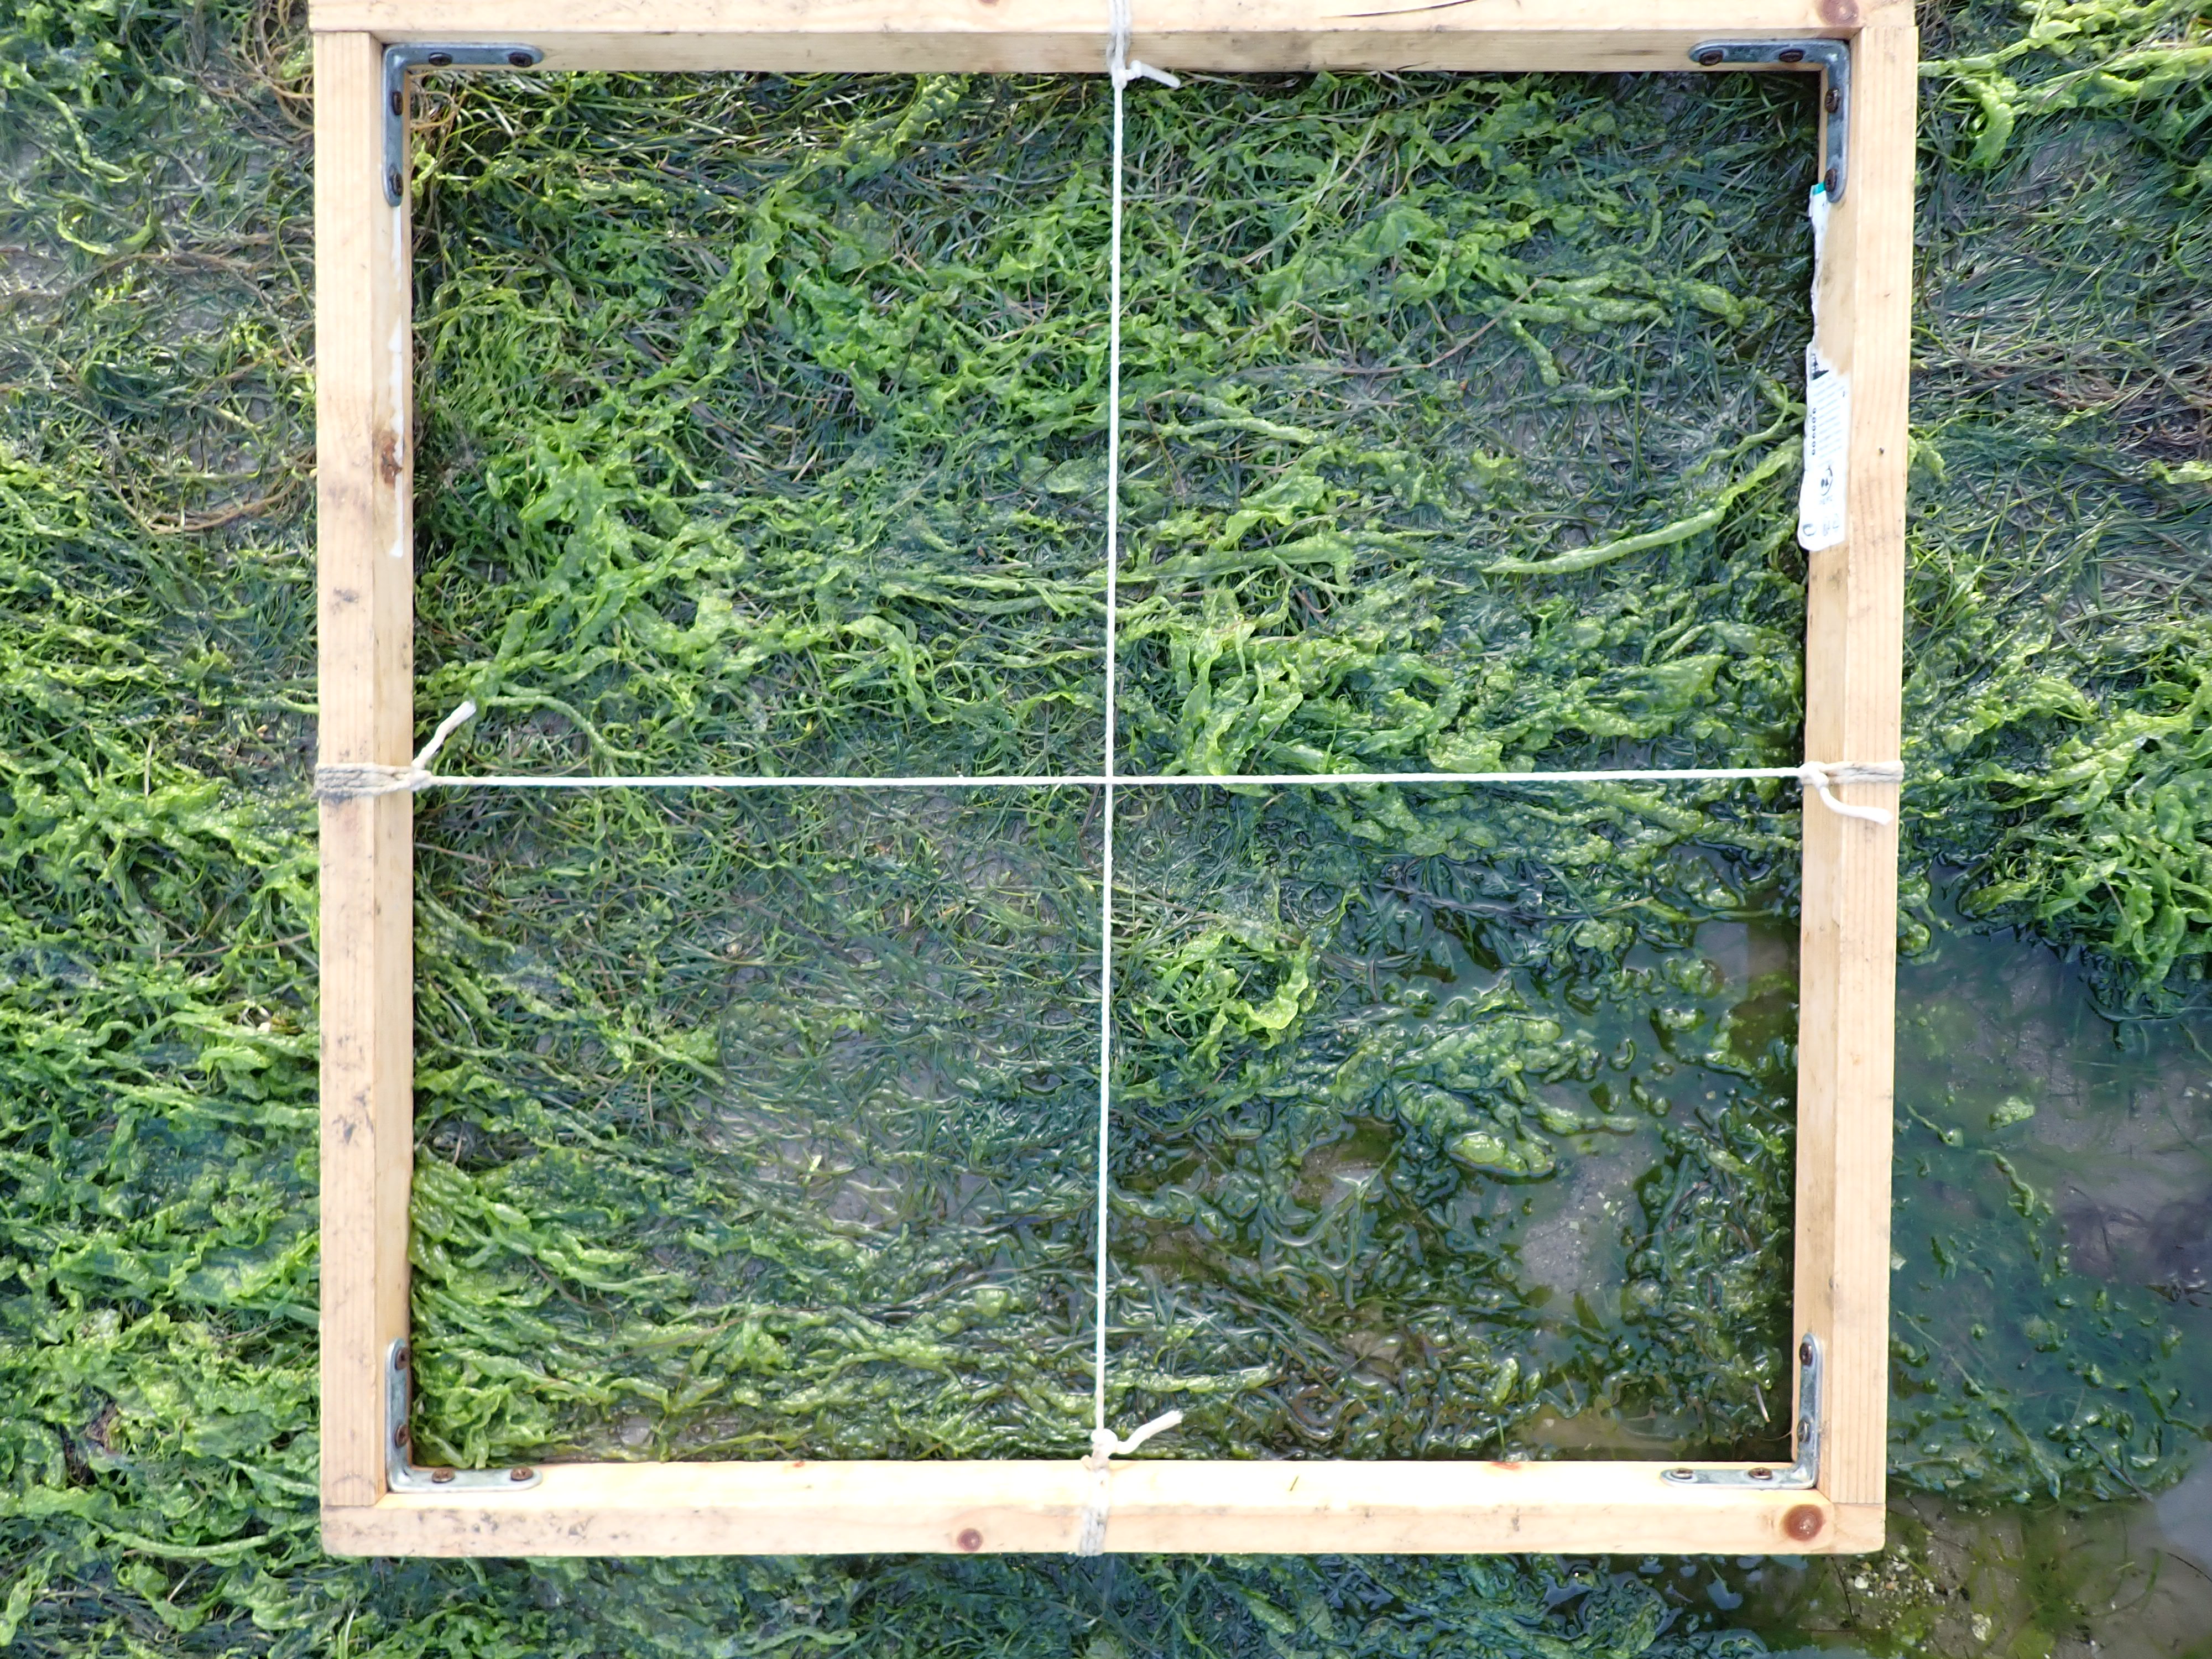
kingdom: Plantae
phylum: Chlorophyta
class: Ulvophyceae
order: Ulvales
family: Ulvaceae
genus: Ulva
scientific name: Ulva
